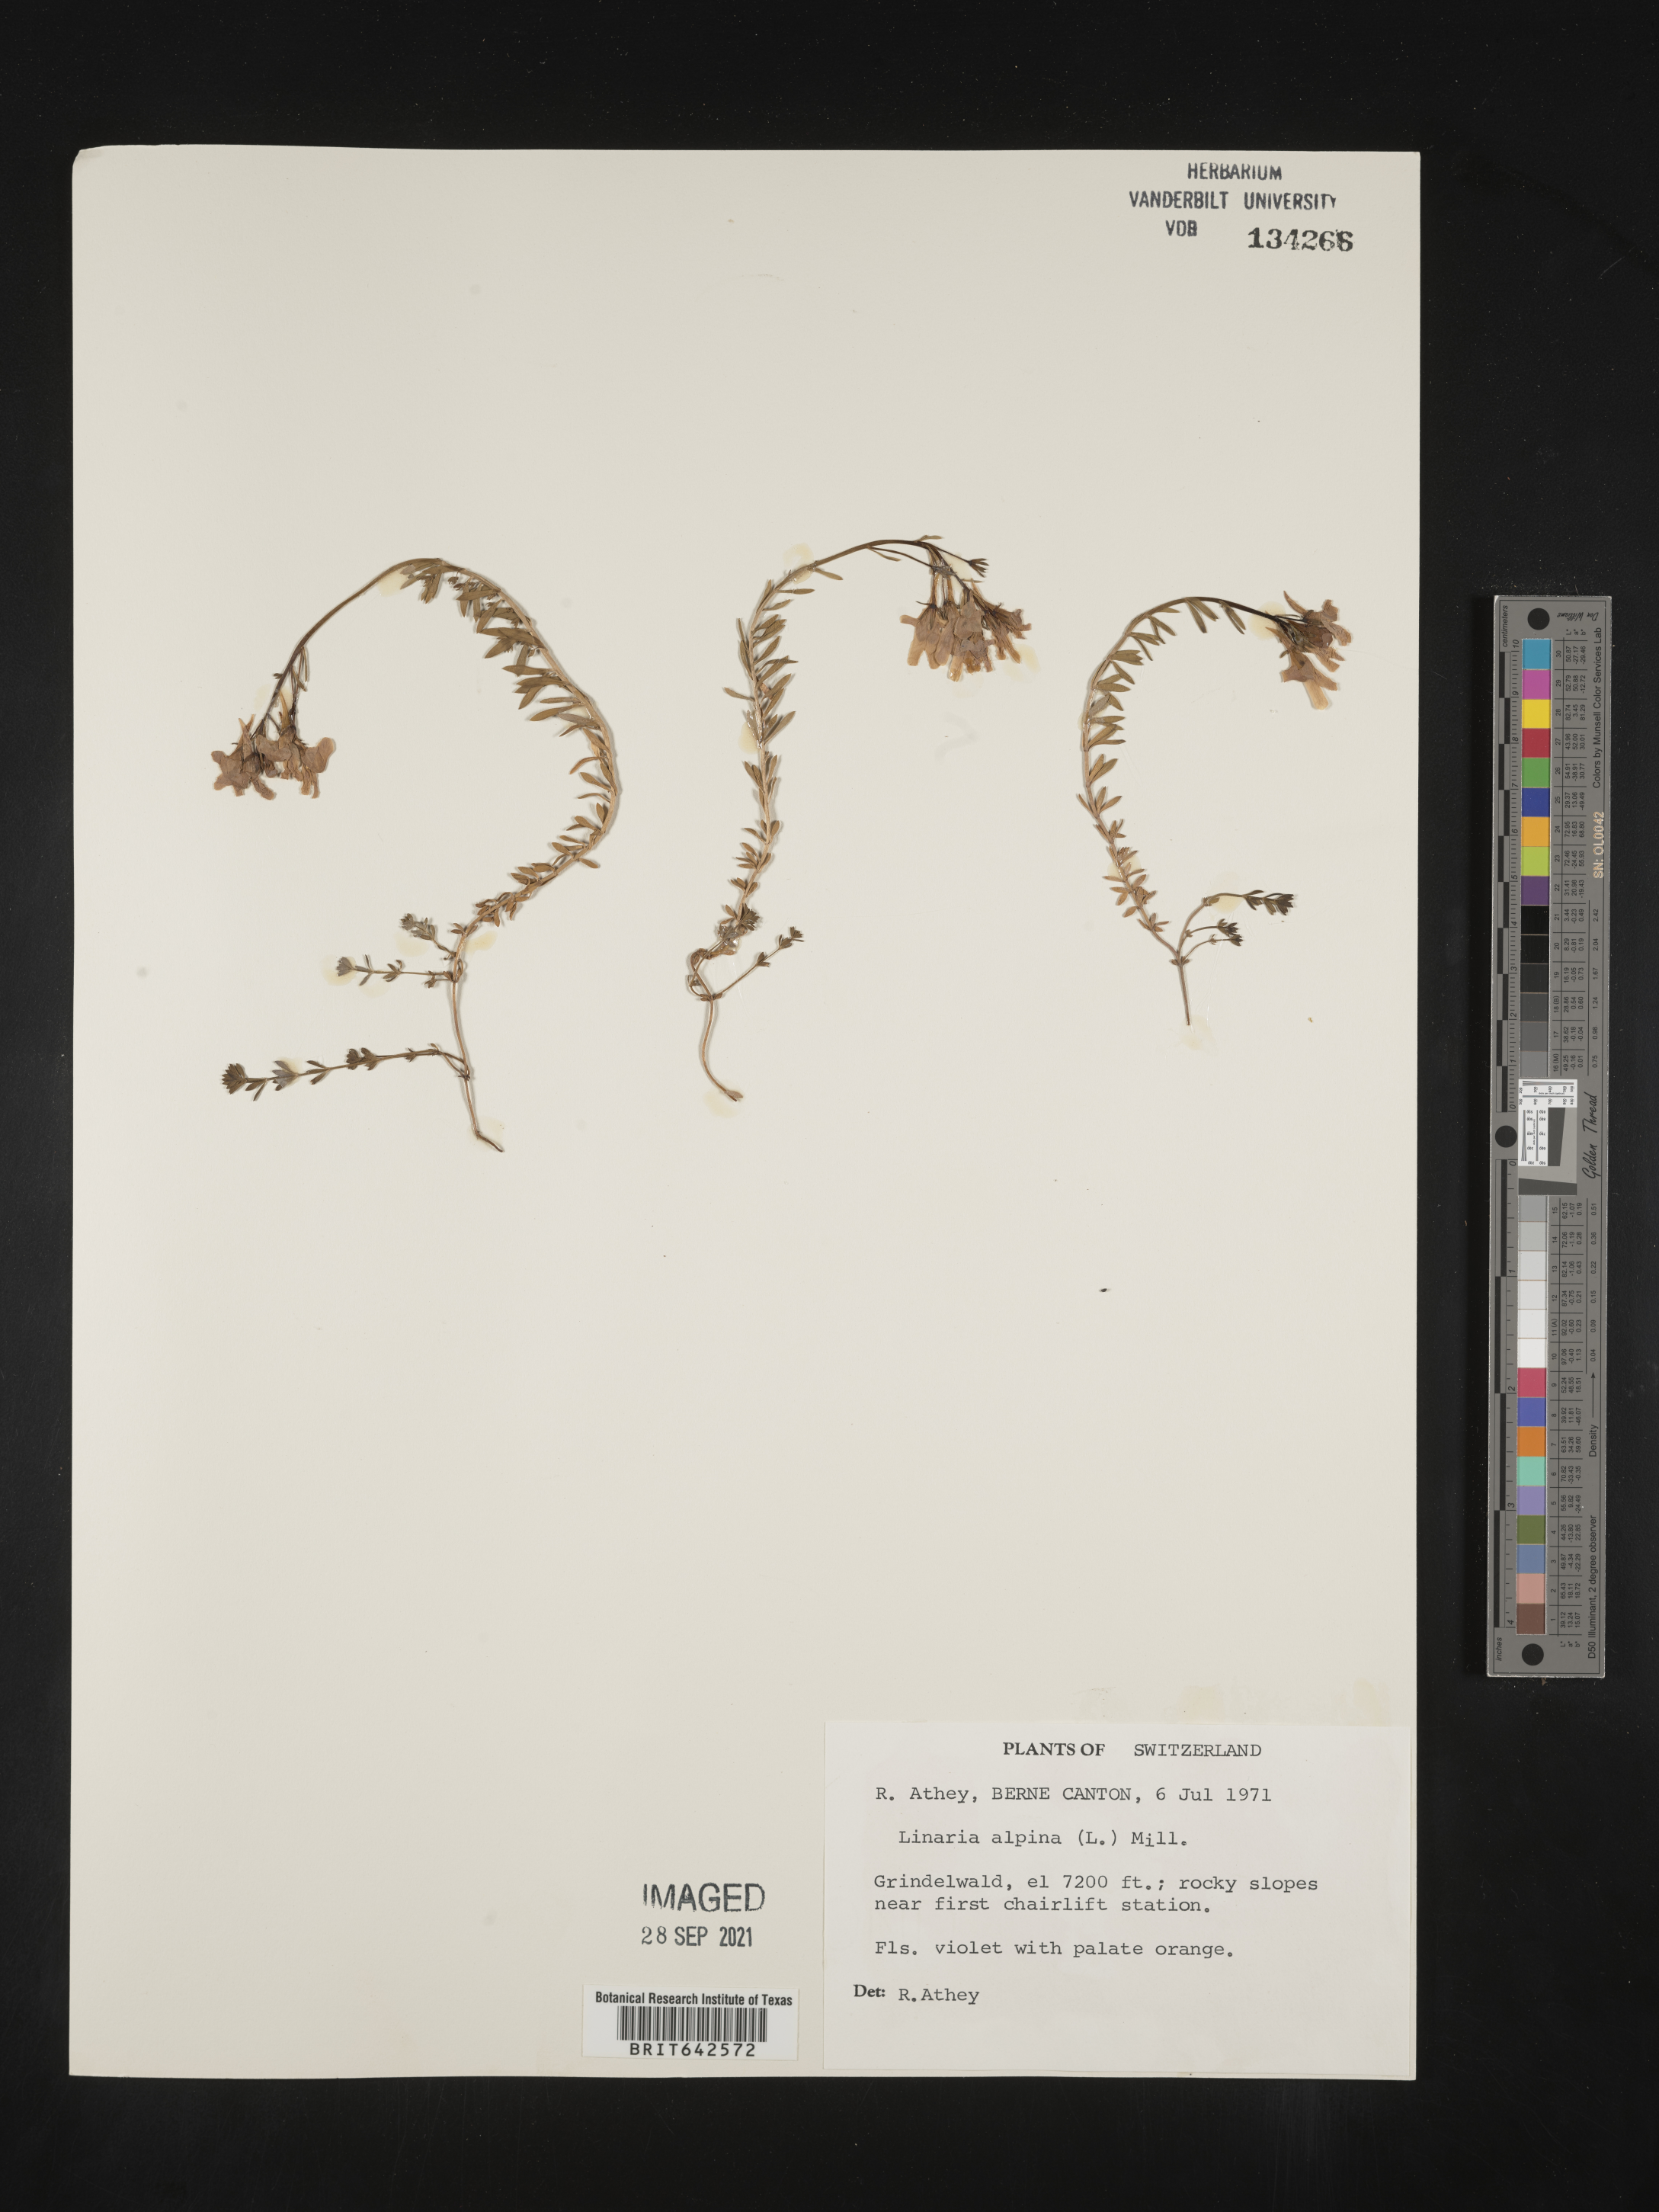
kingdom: Plantae
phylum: Tracheophyta
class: Magnoliopsida
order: Lamiales
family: Plantaginaceae
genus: Linaria
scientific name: Linaria
